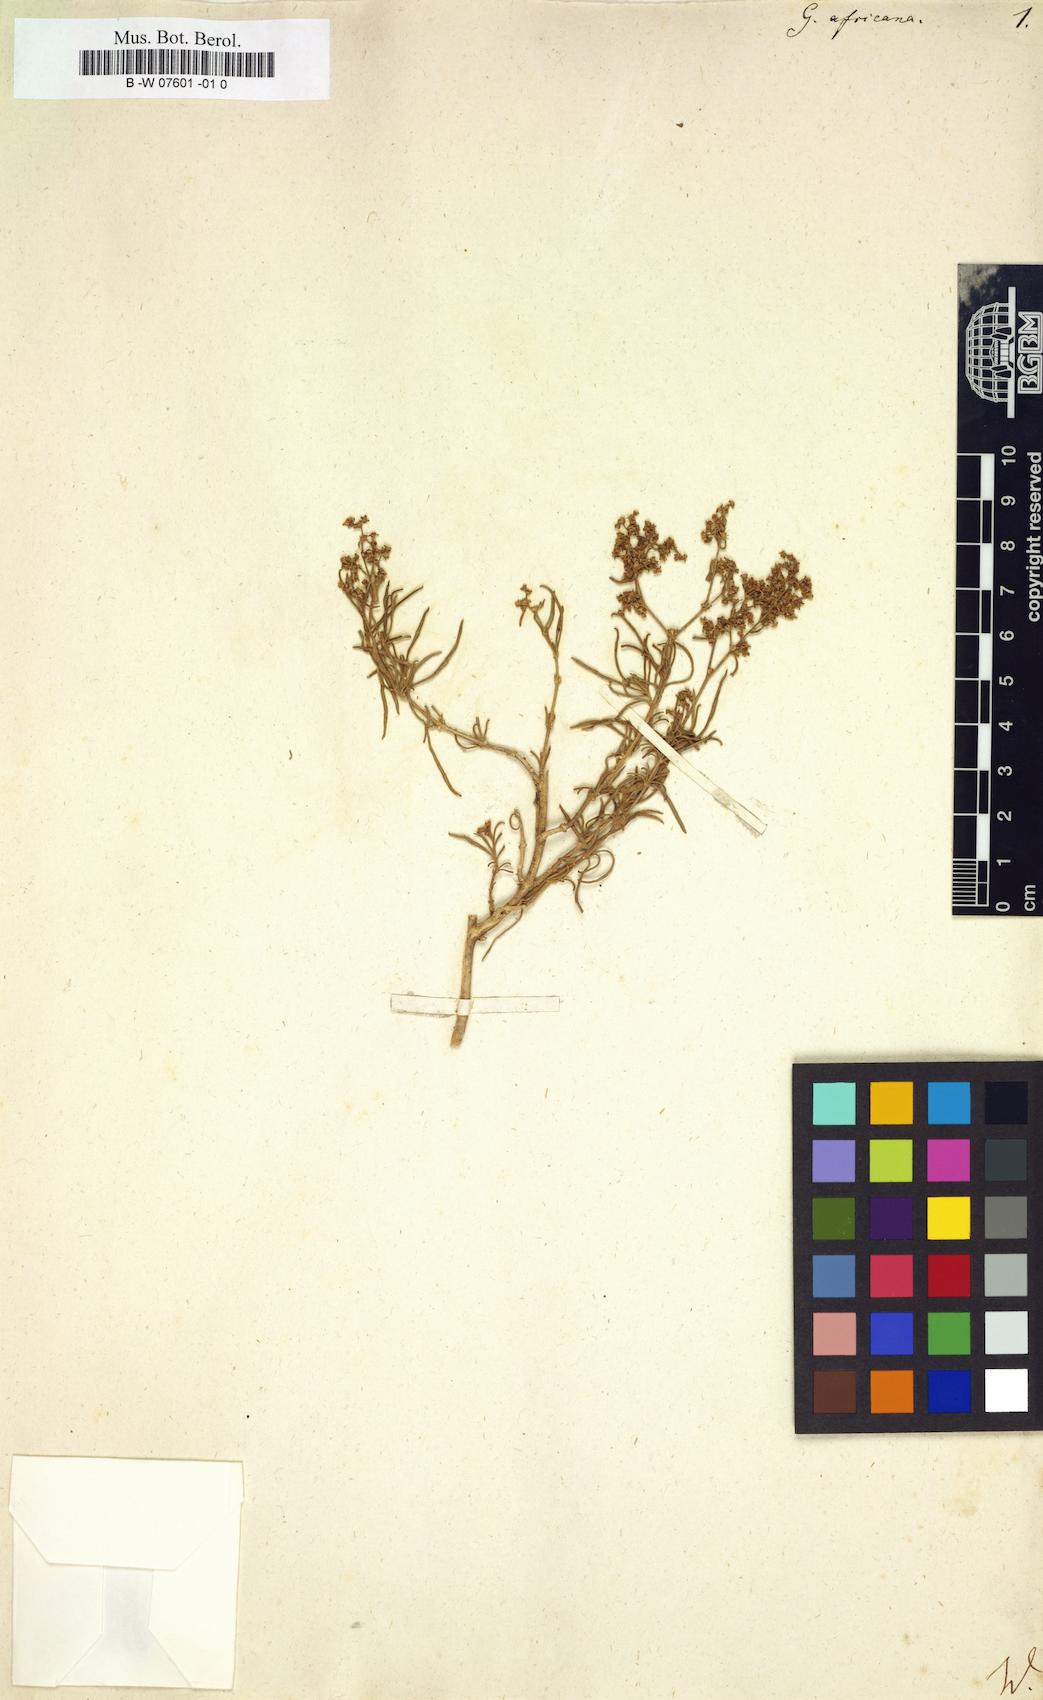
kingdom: Plantae
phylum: Tracheophyta
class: Magnoliopsida
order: Caryophyllales
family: Aizoaceae
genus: Aizoon
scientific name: Aizoon africanum
